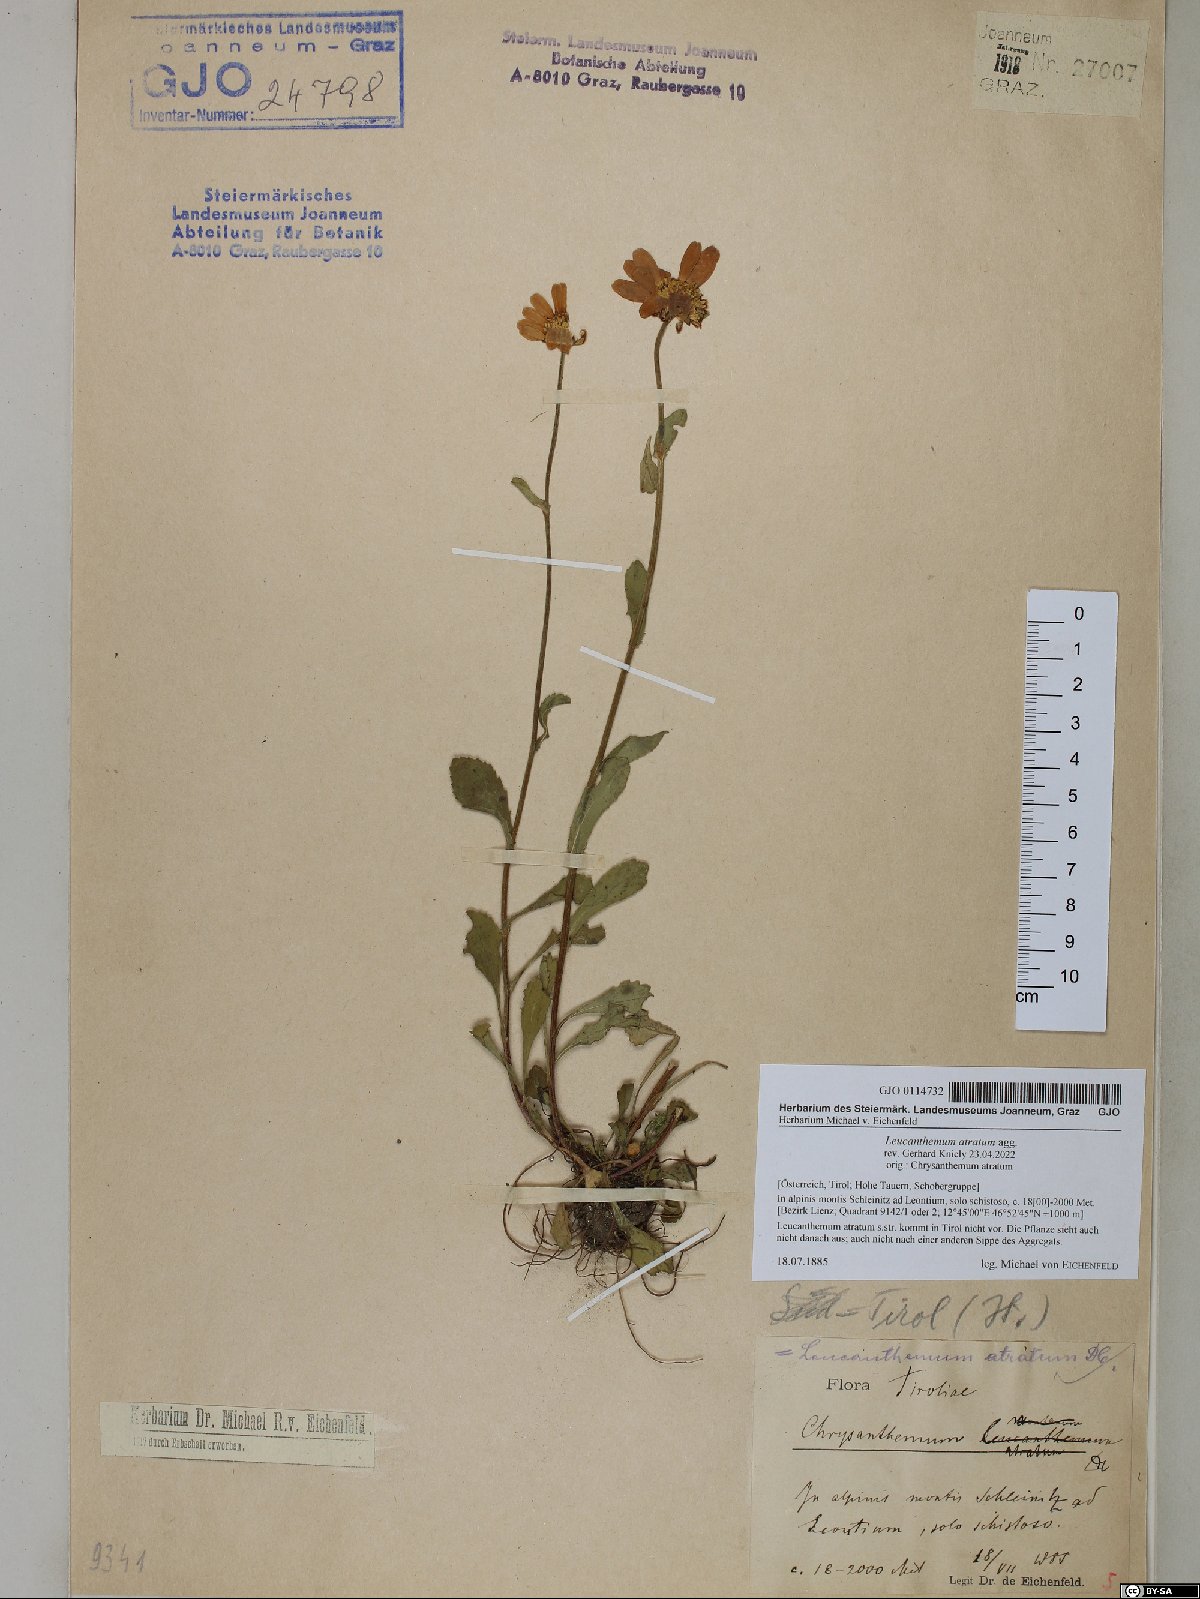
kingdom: Plantae
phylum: Tracheophyta
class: Magnoliopsida
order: Asterales
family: Asteraceae
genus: Leucanthemum
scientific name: Leucanthemum atratum
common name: Saw-leaved moon-daisy
